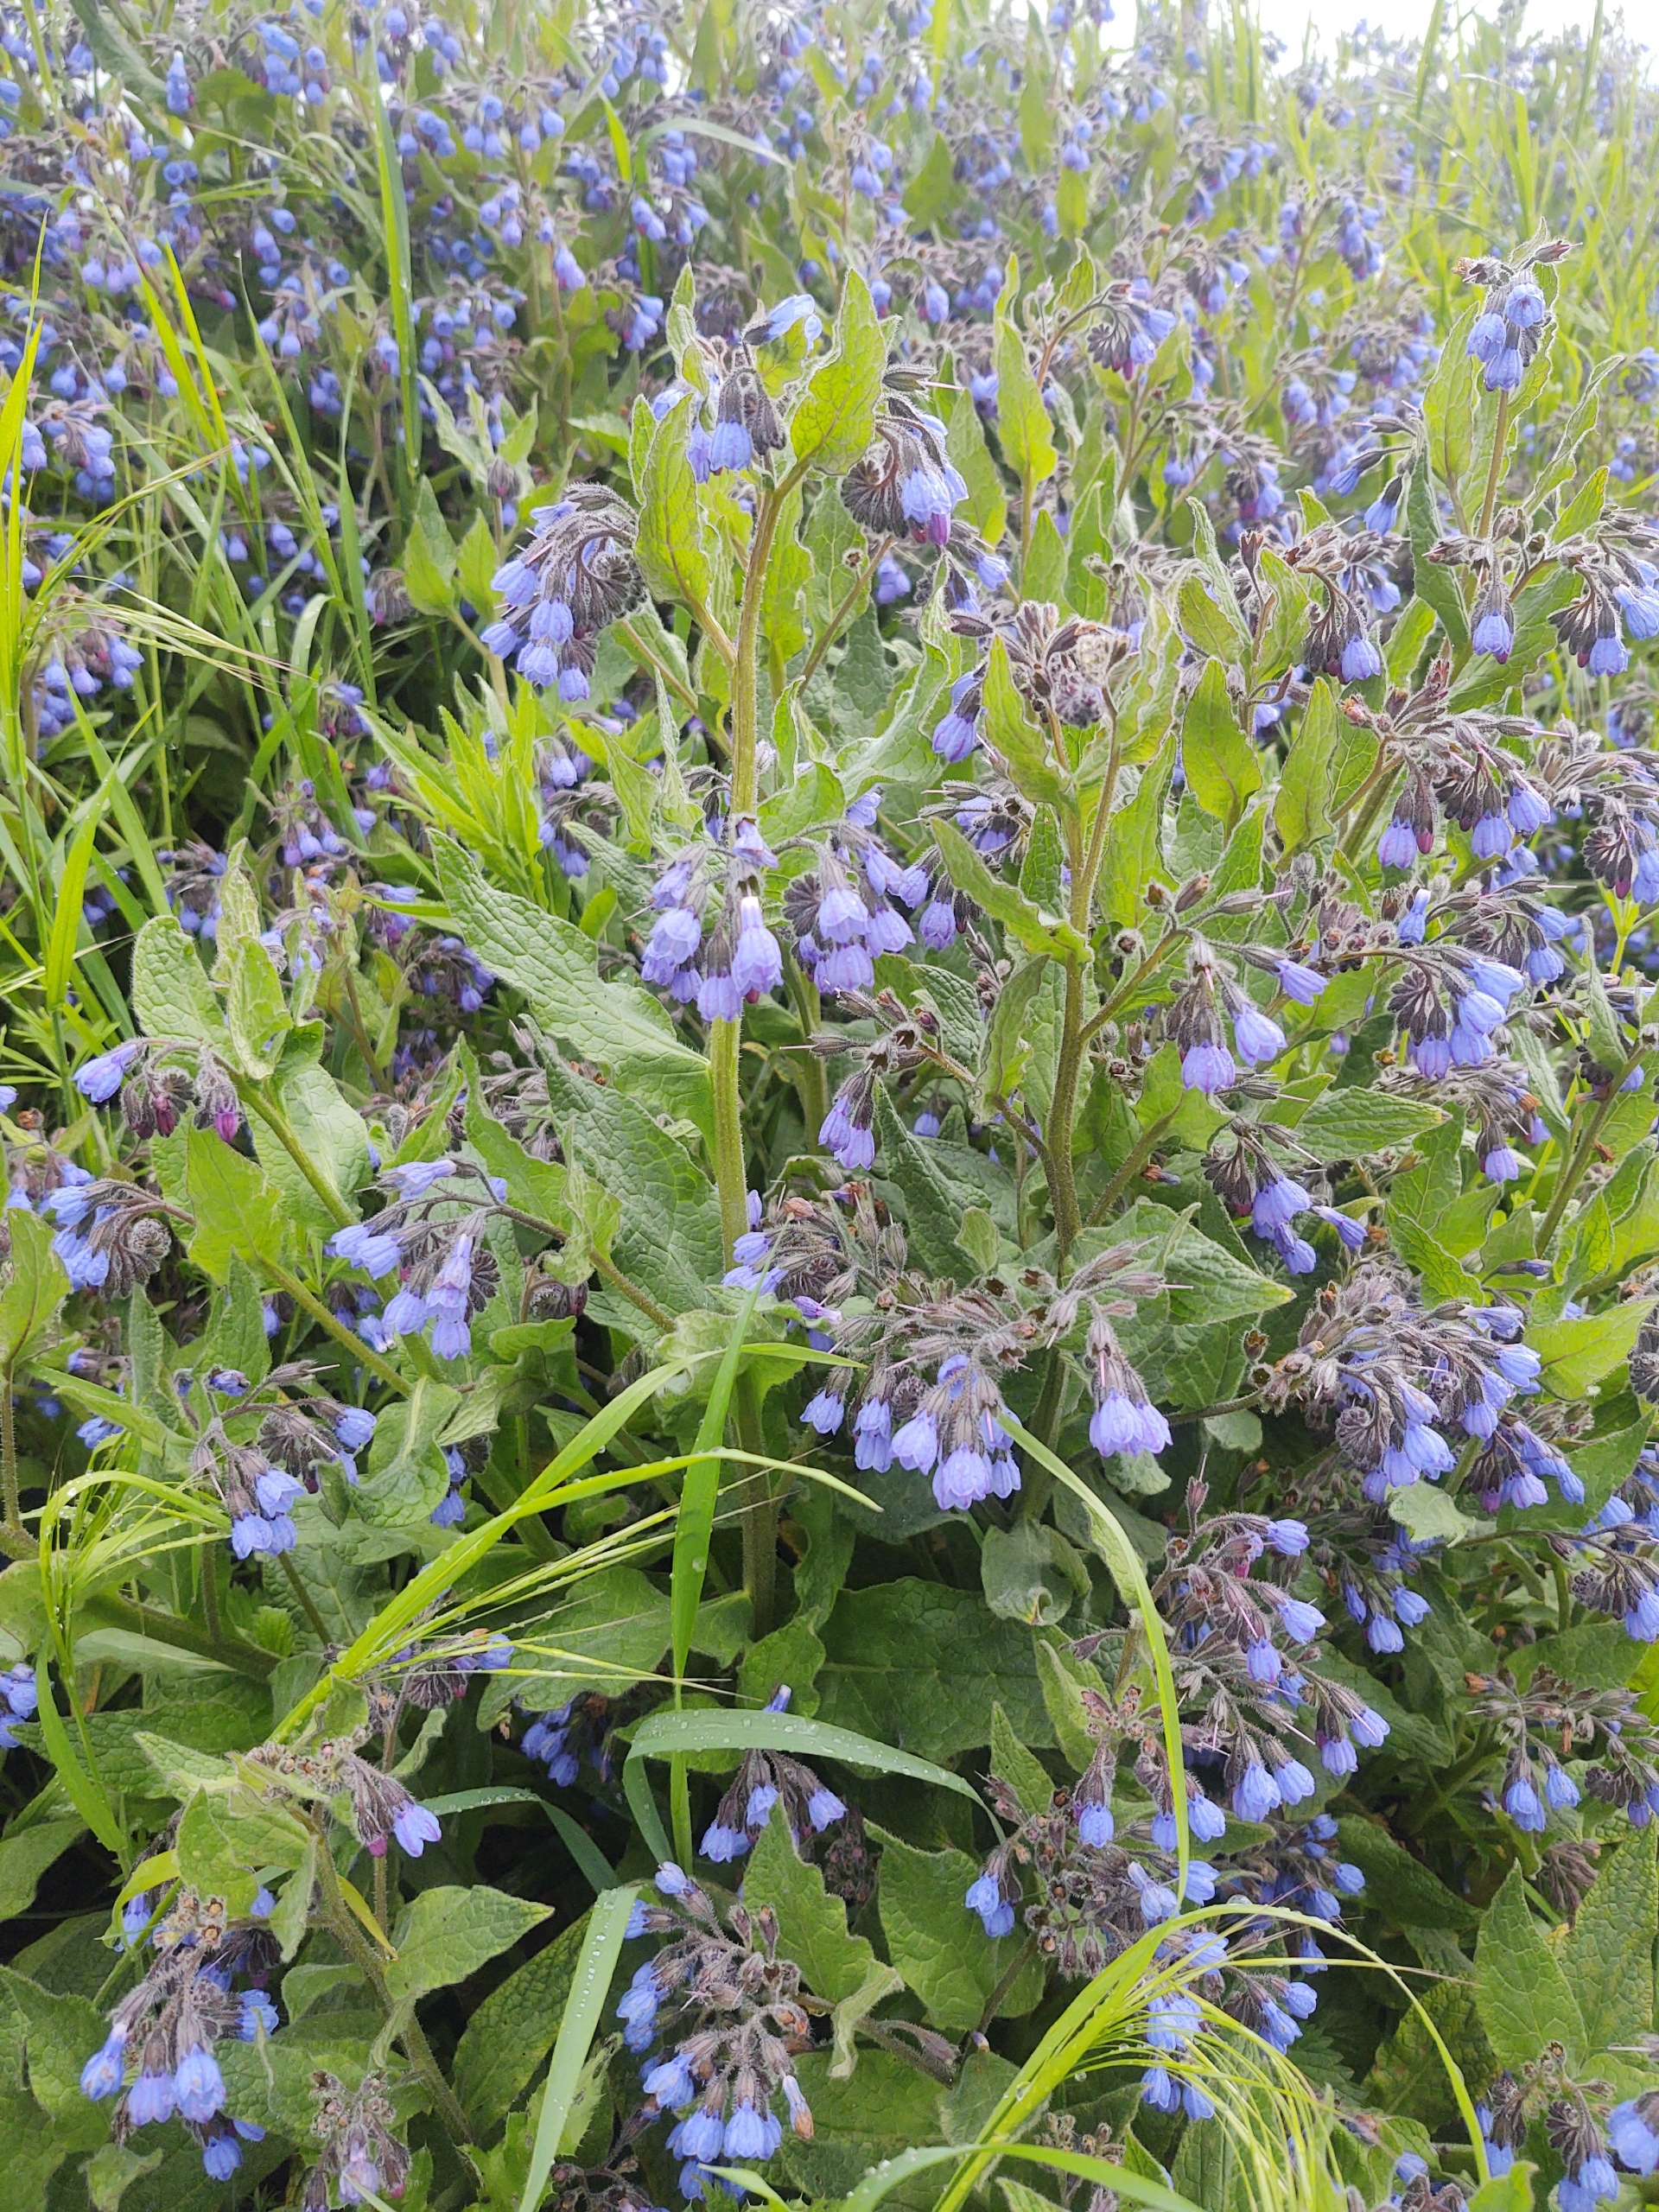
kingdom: Plantae
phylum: Tracheophyta
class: Magnoliopsida
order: Boraginales
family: Boraginaceae
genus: Symphytum
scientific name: Symphytum caucasicum
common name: Kaukasisk kulsukker
